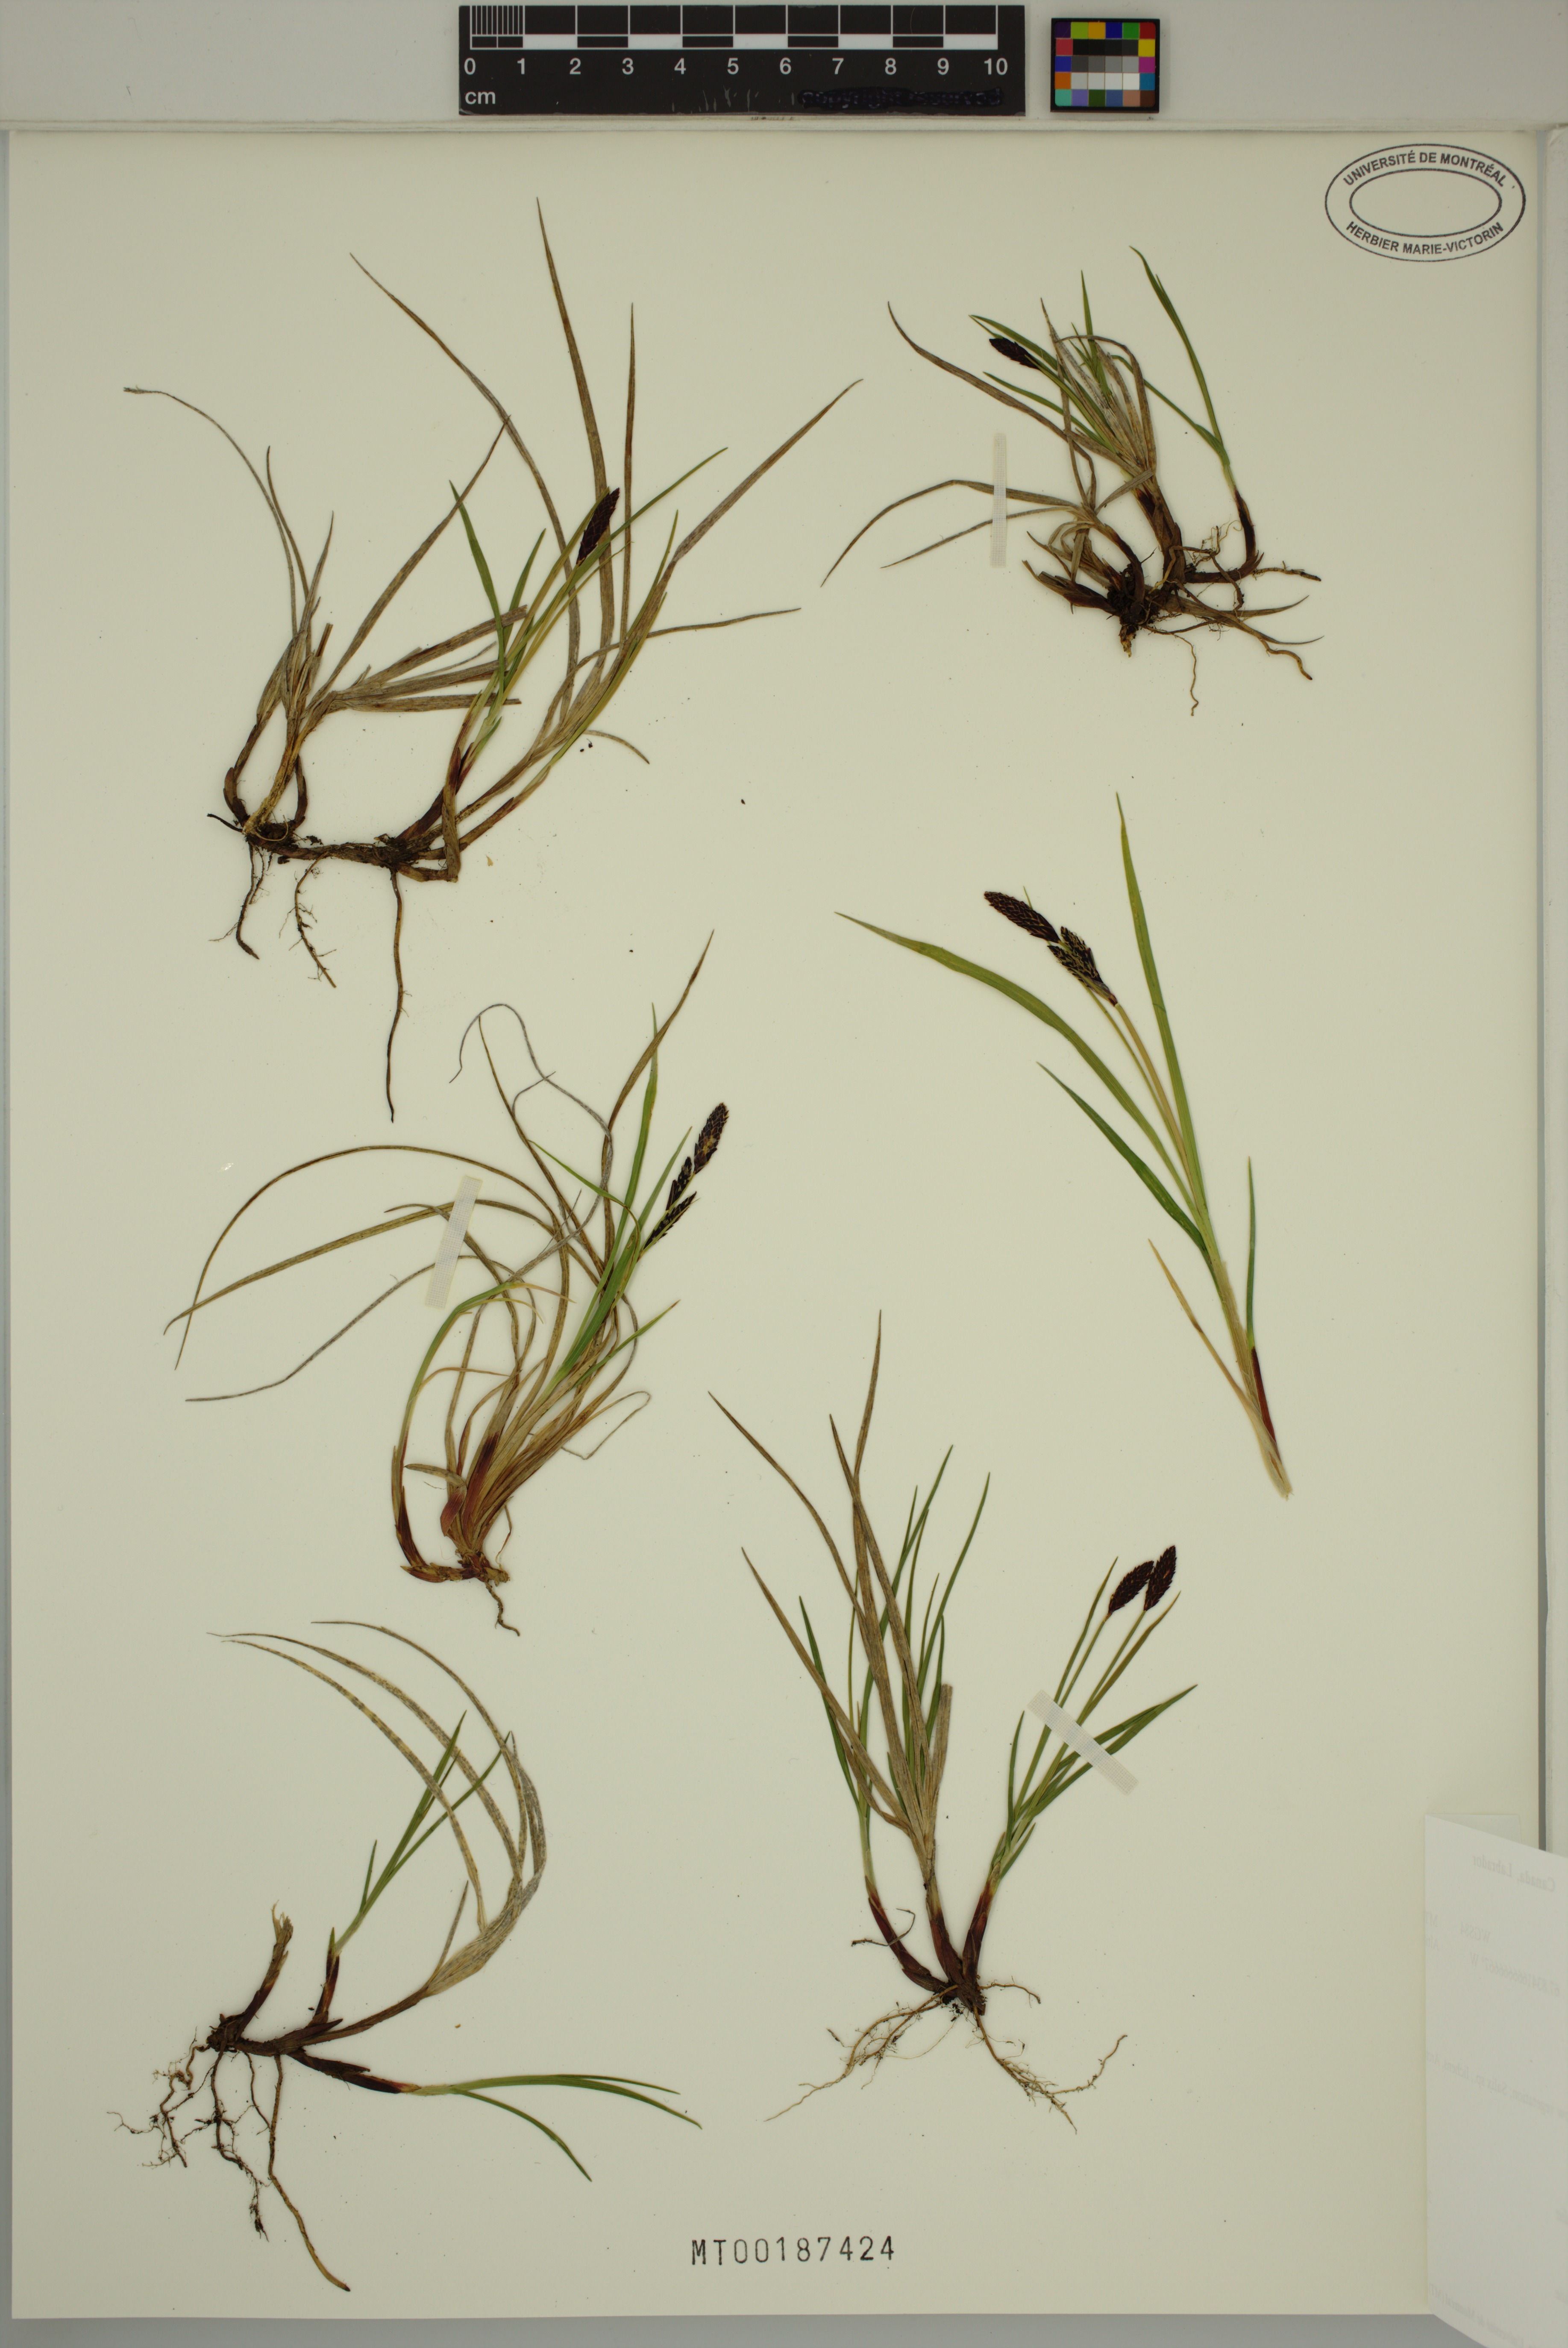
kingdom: Plantae
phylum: Tracheophyta
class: Liliopsida
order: Poales
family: Cyperaceae
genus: Carex
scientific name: Carex
